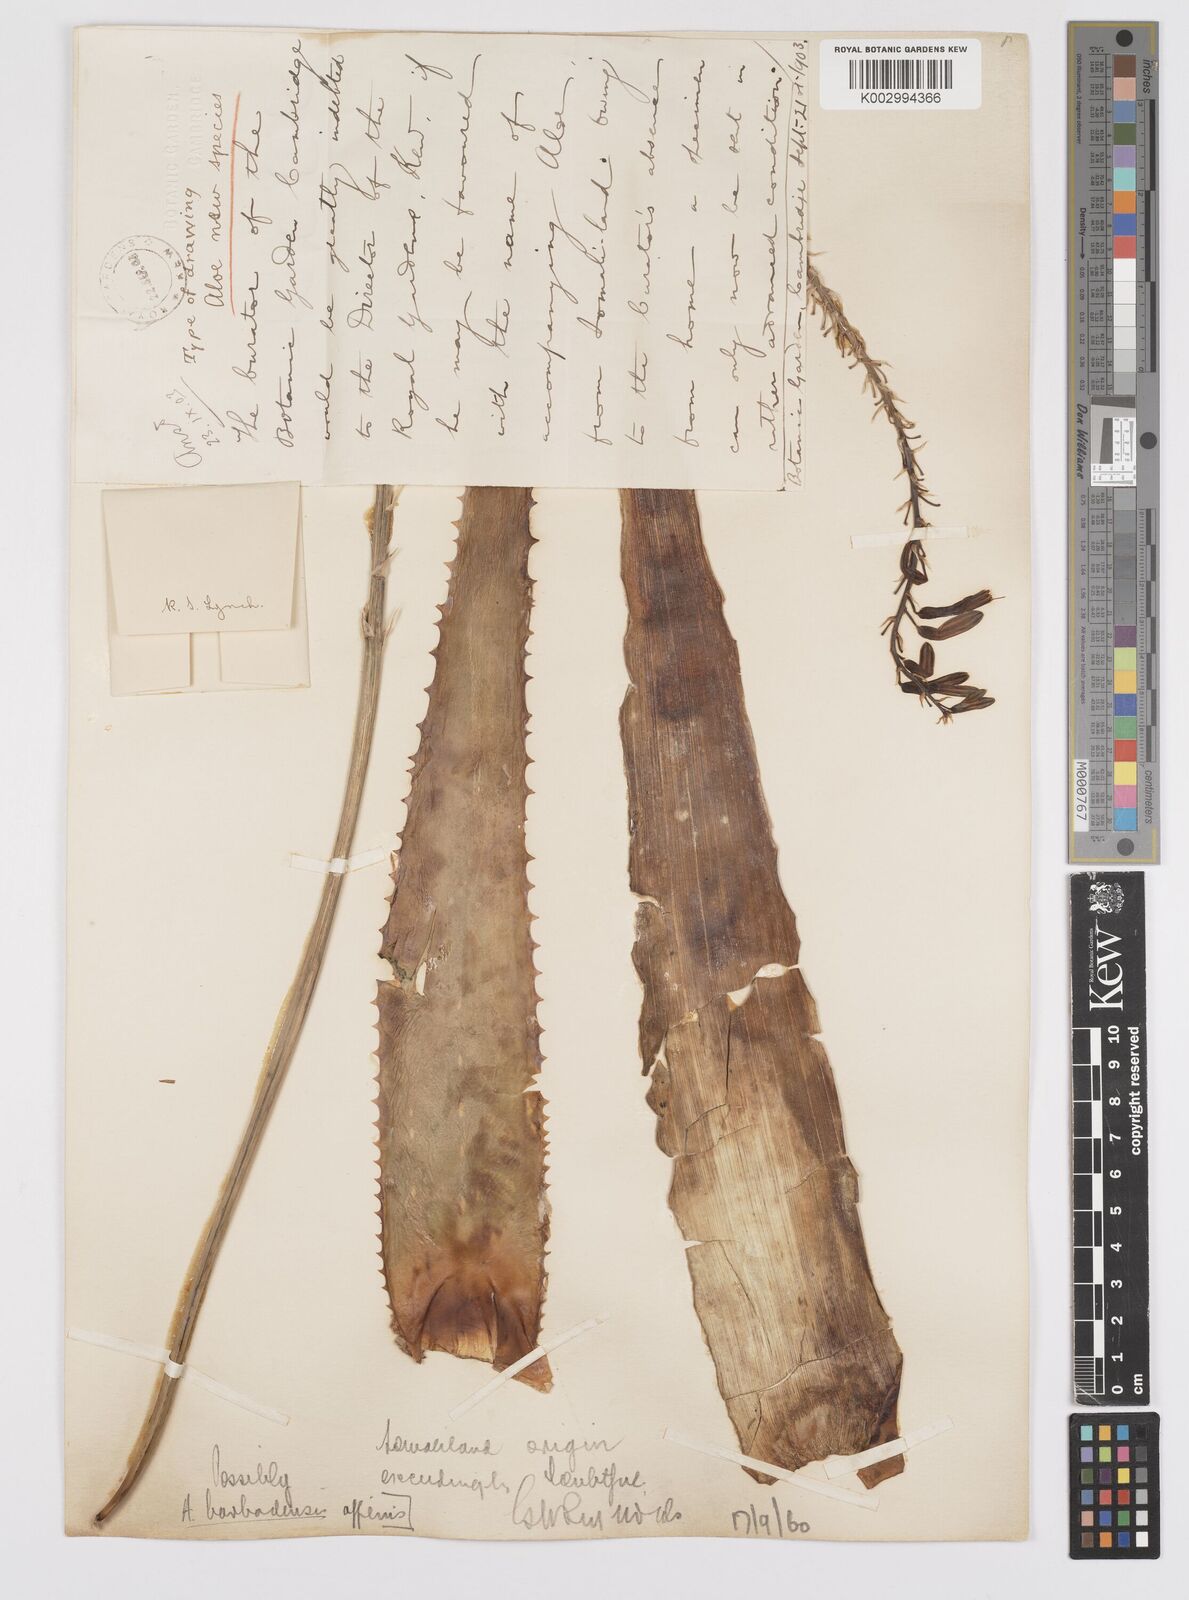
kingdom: Plantae
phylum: Tracheophyta
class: Liliopsida
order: Asparagales
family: Asphodelaceae
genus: Aloe
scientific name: Aloe vera
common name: Barbados aloe
